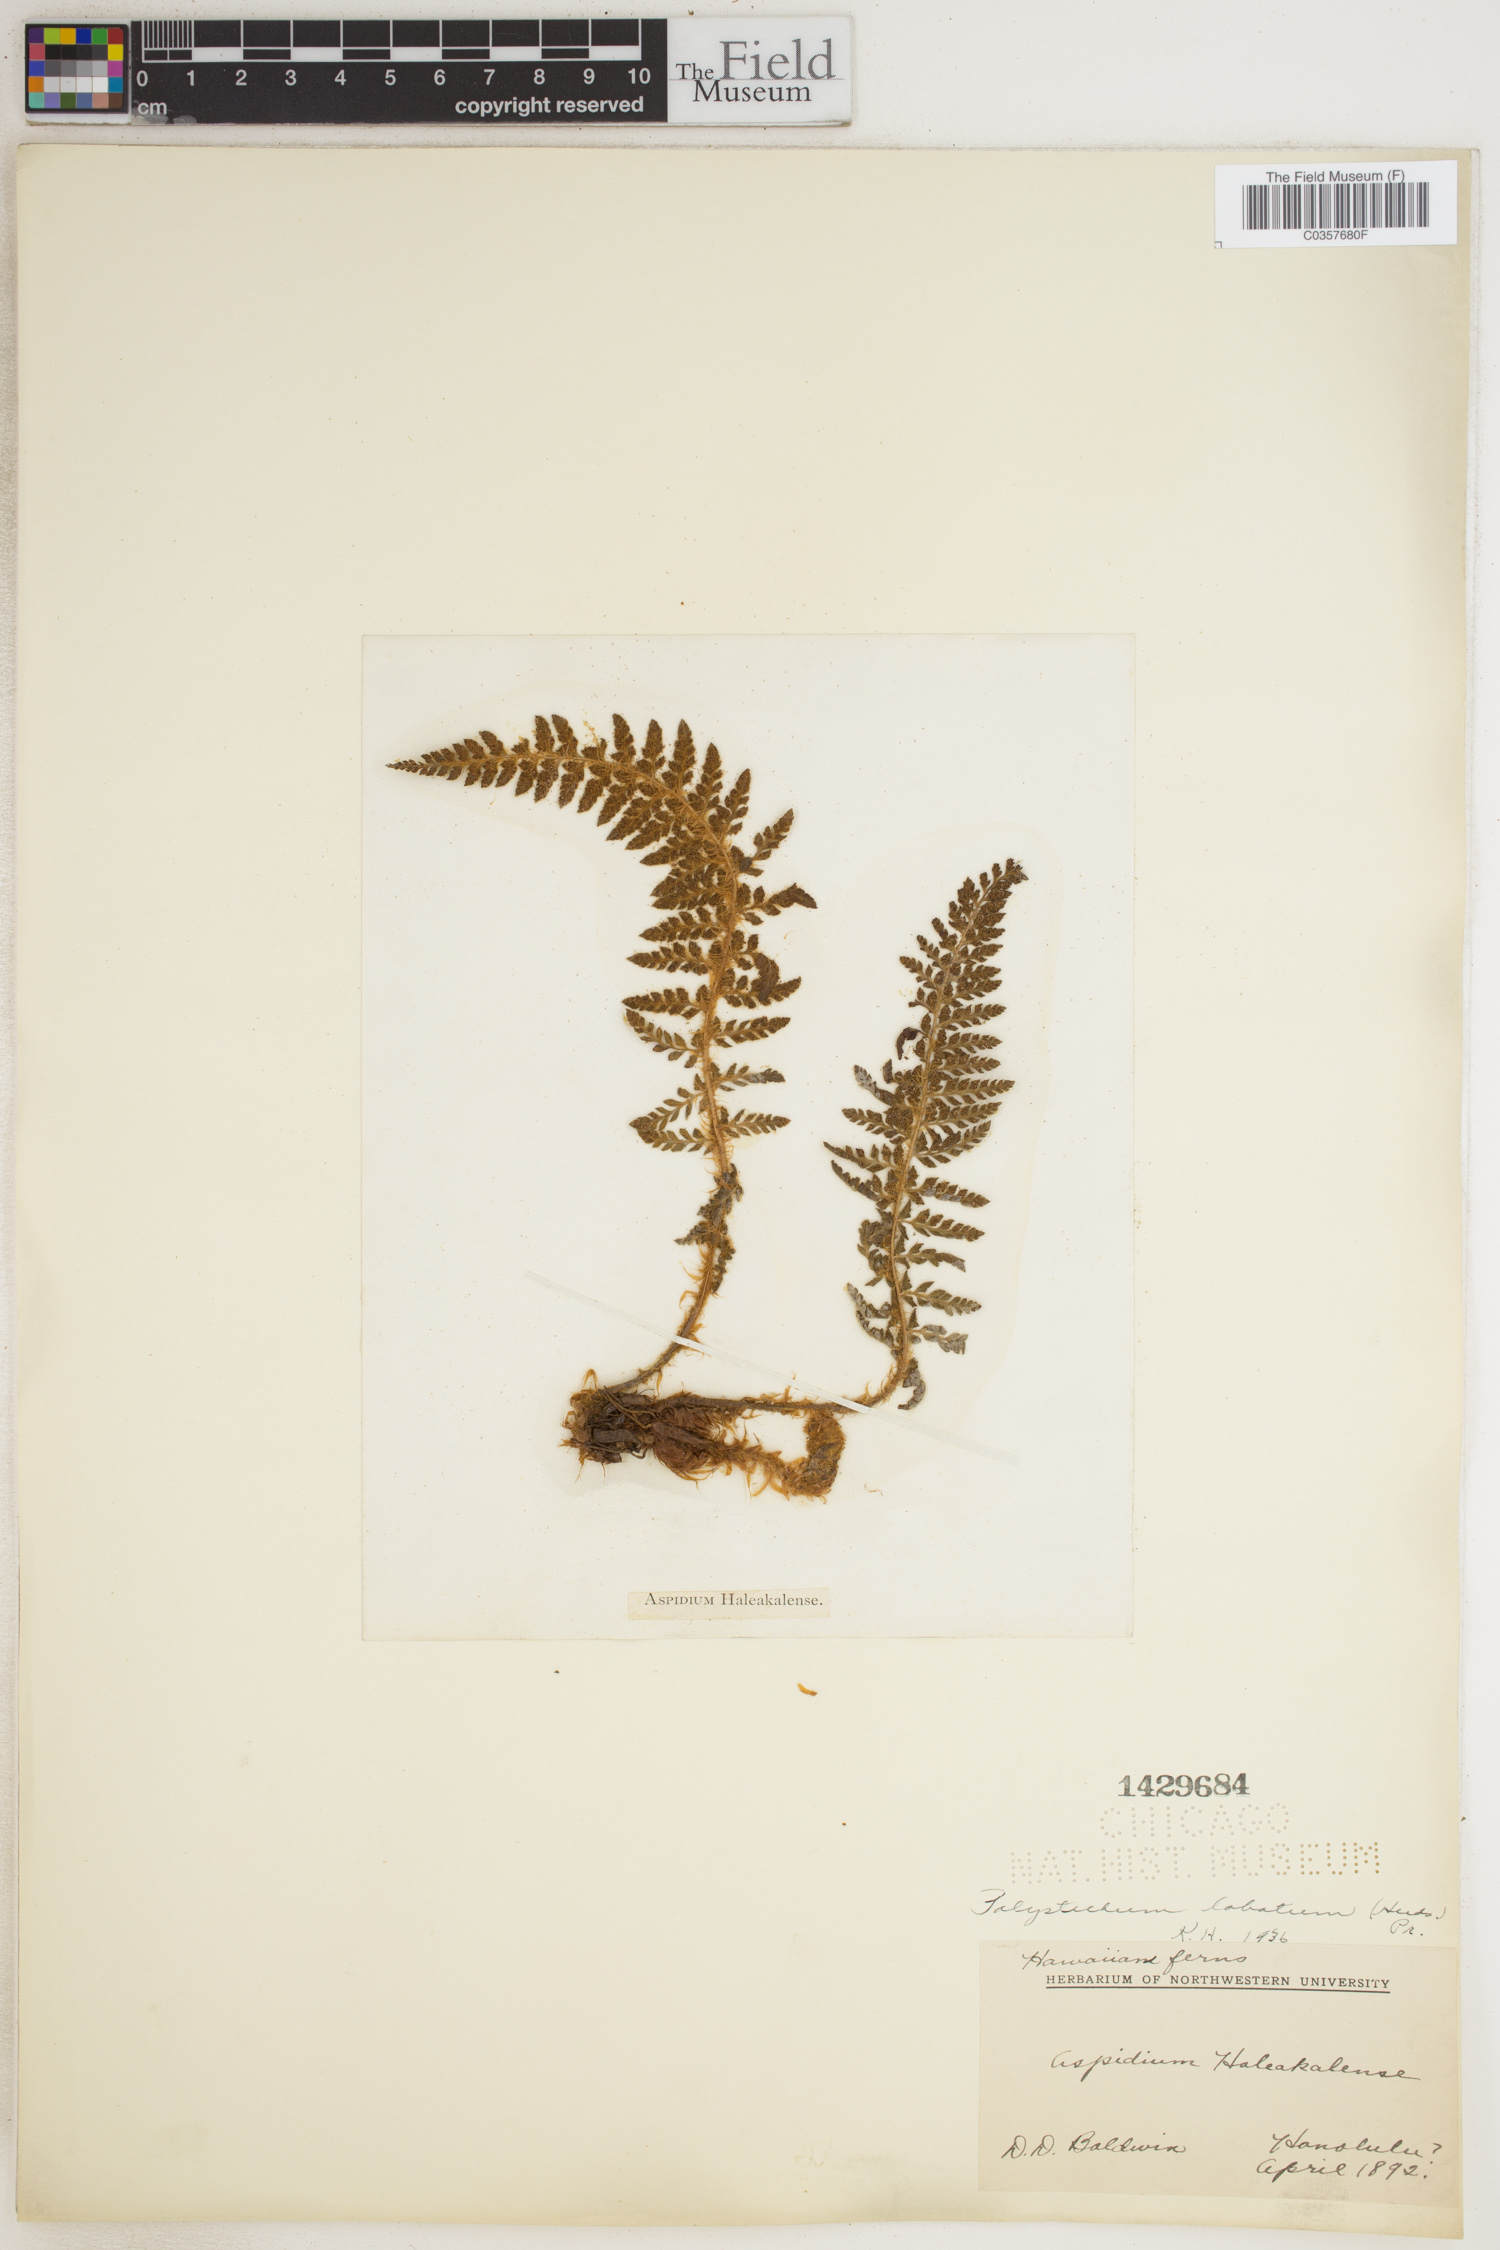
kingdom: Plantae
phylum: Tracheophyta
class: Polypodiopsida
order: Polypodiales
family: Dryopteridaceae
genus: Polystichum
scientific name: Polystichum aculeatum
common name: Hard shield-fern
